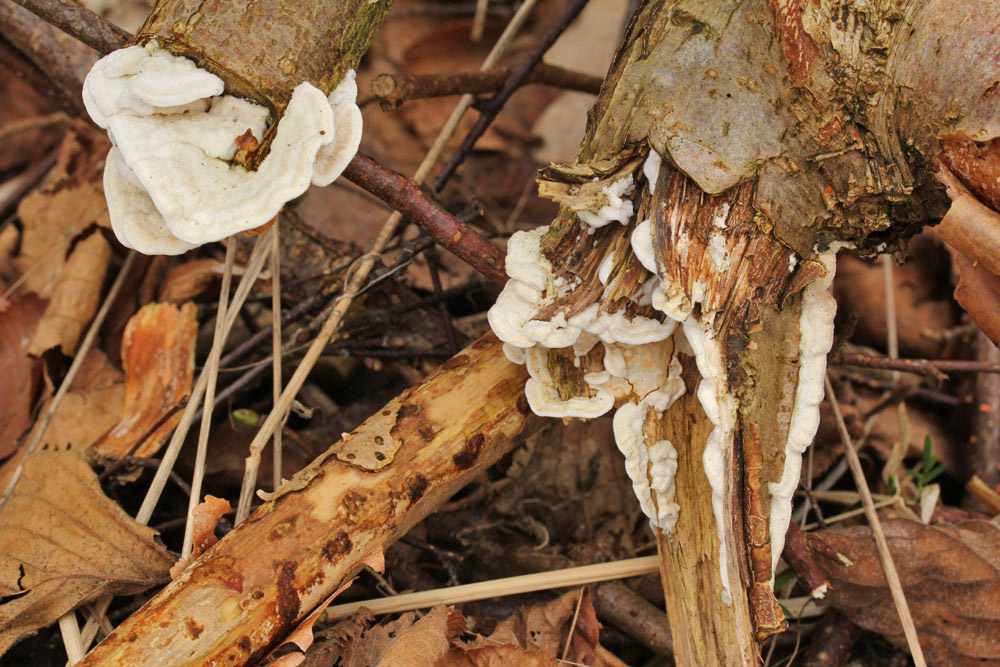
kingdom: Fungi
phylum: Basidiomycota
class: Agaricomycetes
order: Polyporales
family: Irpicaceae
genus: Byssomerulius
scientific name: Byssomerulius corium
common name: læder-åresvamp
